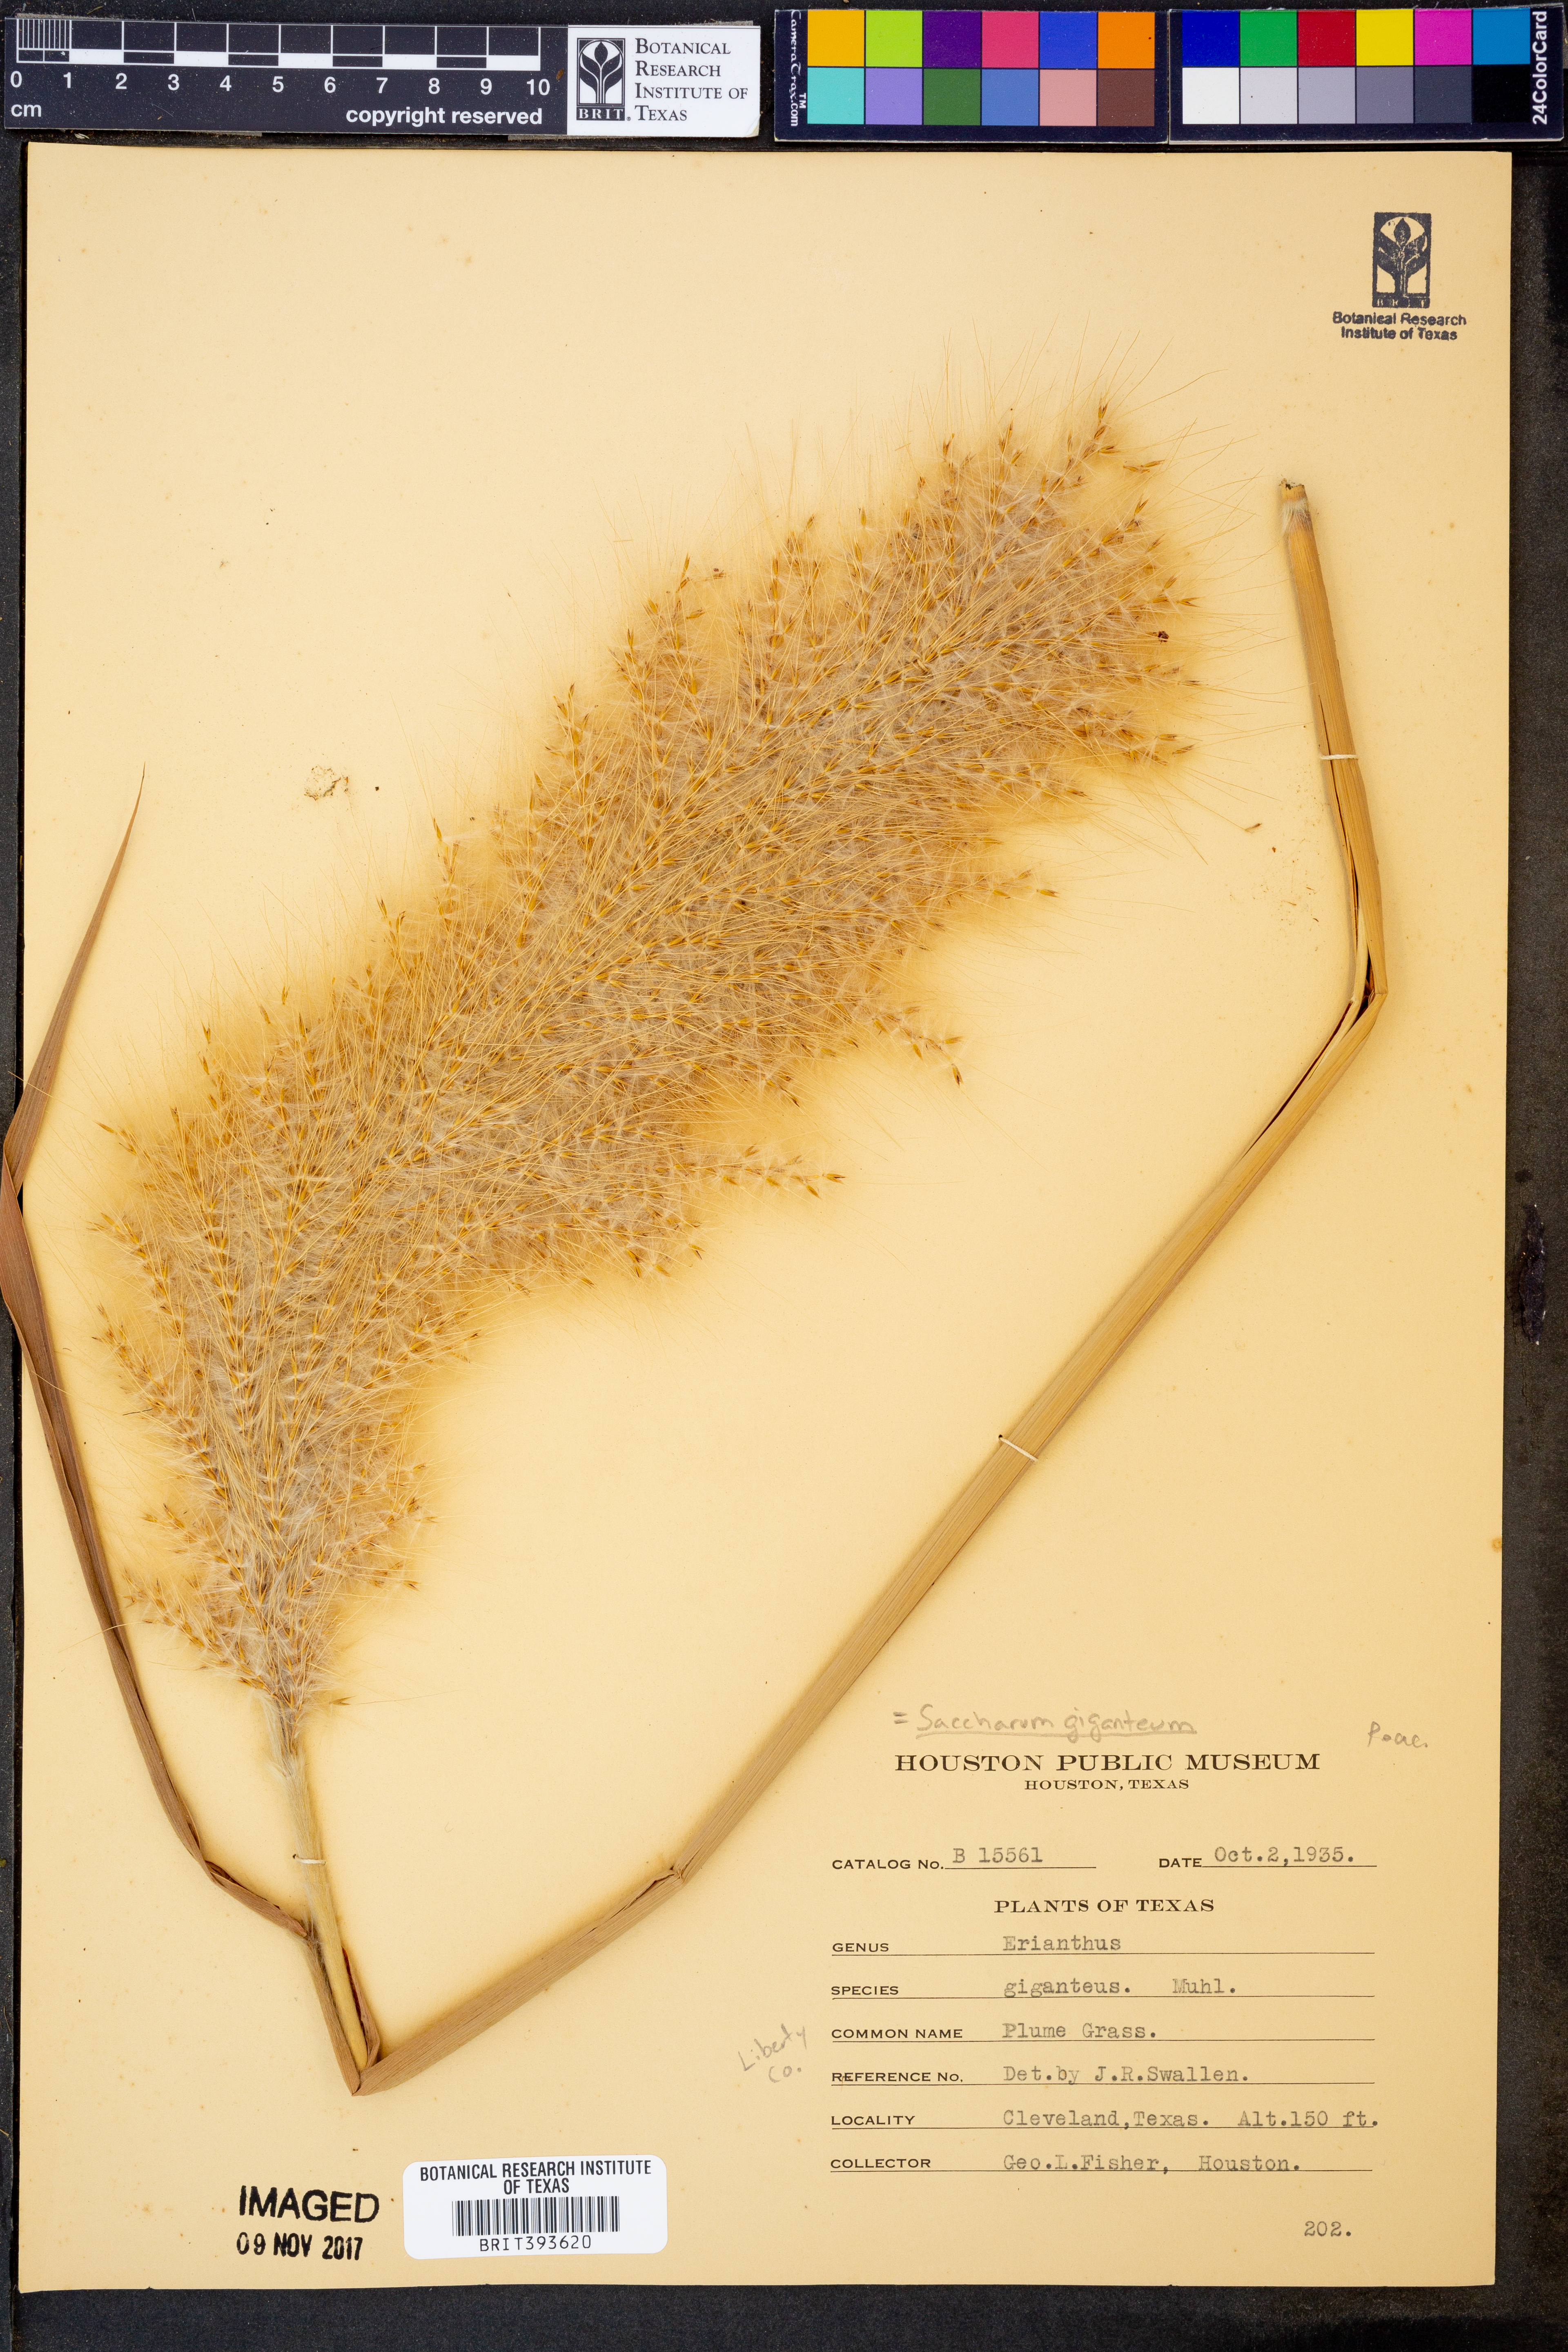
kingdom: Plantae
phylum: Tracheophyta
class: Liliopsida
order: Poales
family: Poaceae
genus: Erianthus
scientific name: Erianthus giganteus
